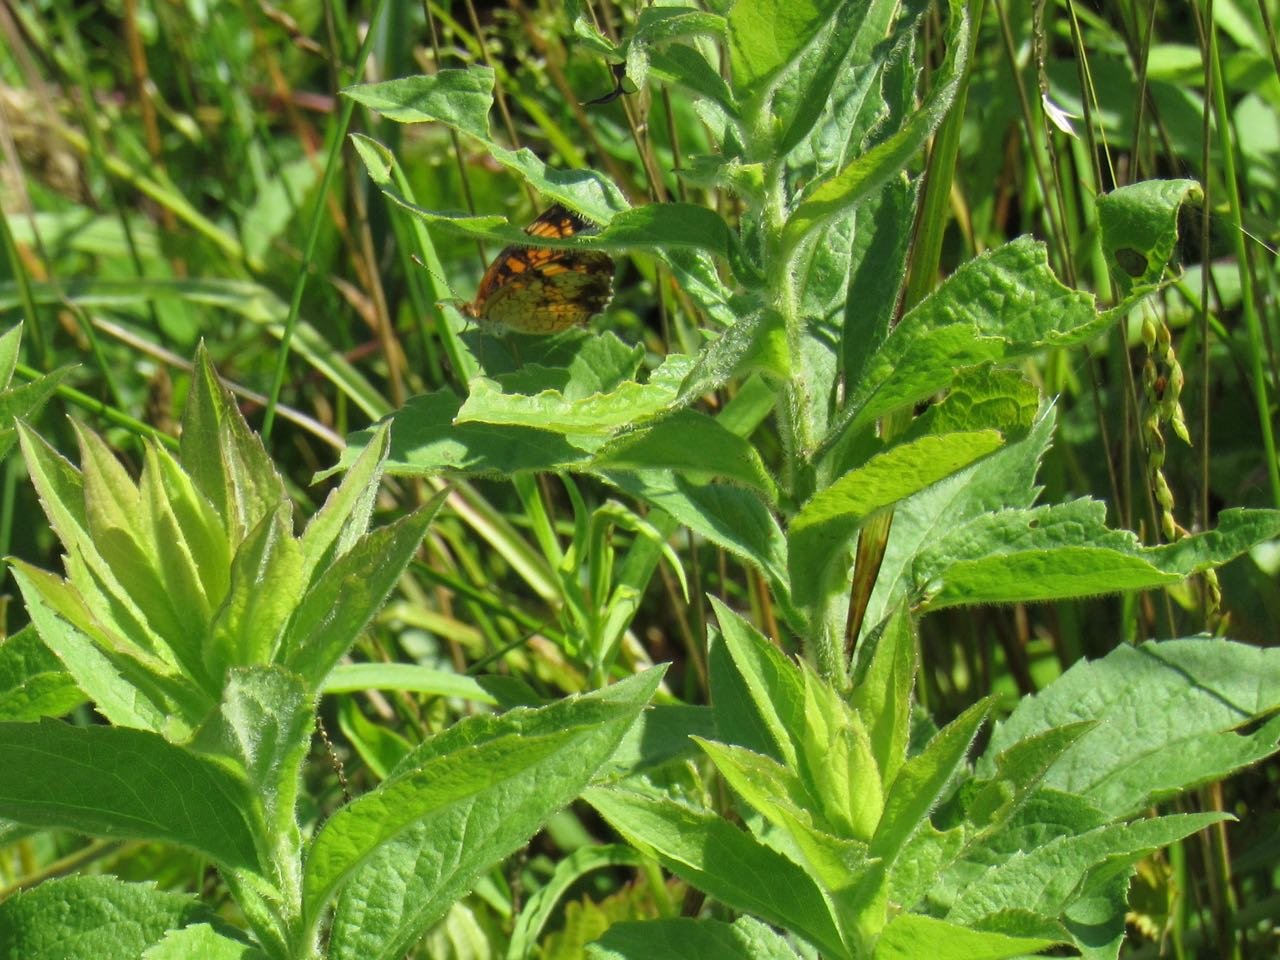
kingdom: Animalia
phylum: Arthropoda
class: Insecta
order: Lepidoptera
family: Nymphalidae
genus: Phyciodes
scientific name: Phyciodes tharos
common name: Pearl Crescent
